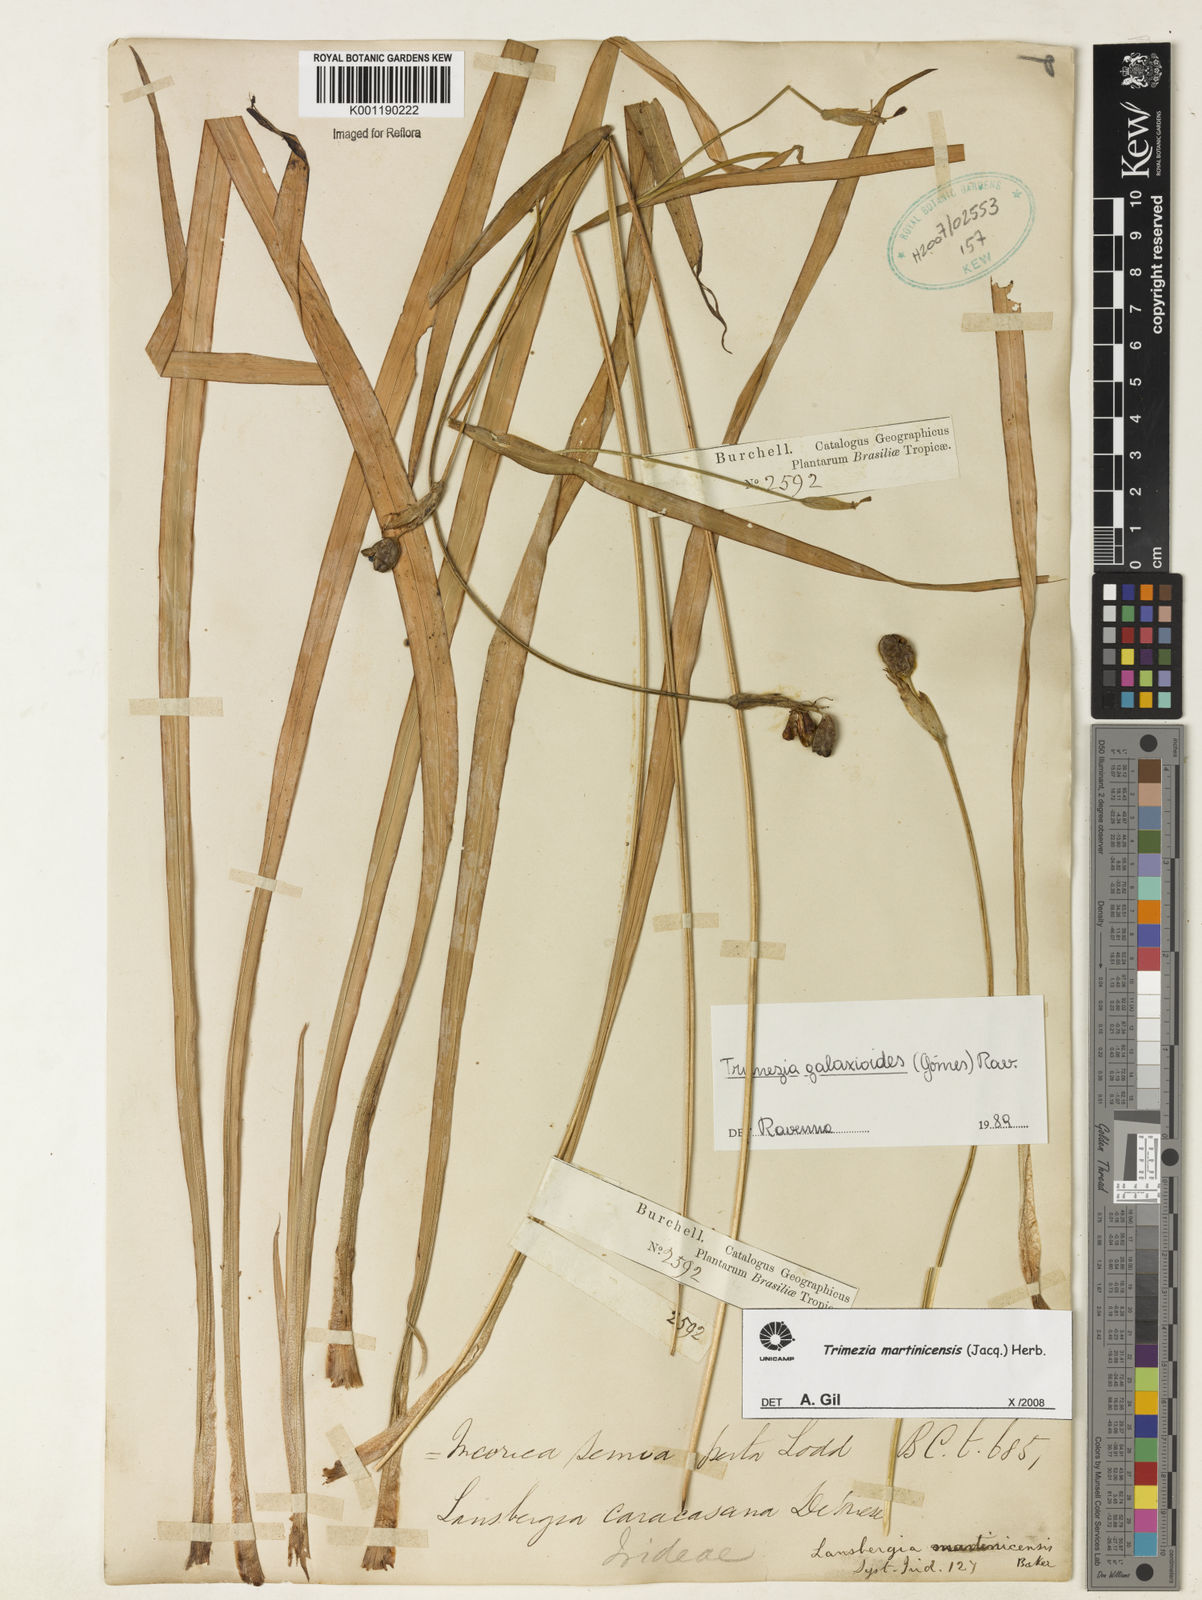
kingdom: Plantae
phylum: Tracheophyta
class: Liliopsida
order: Asparagales
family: Iridaceae
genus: Trimezia
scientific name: Trimezia martinicensis
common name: Martinique trimezia
